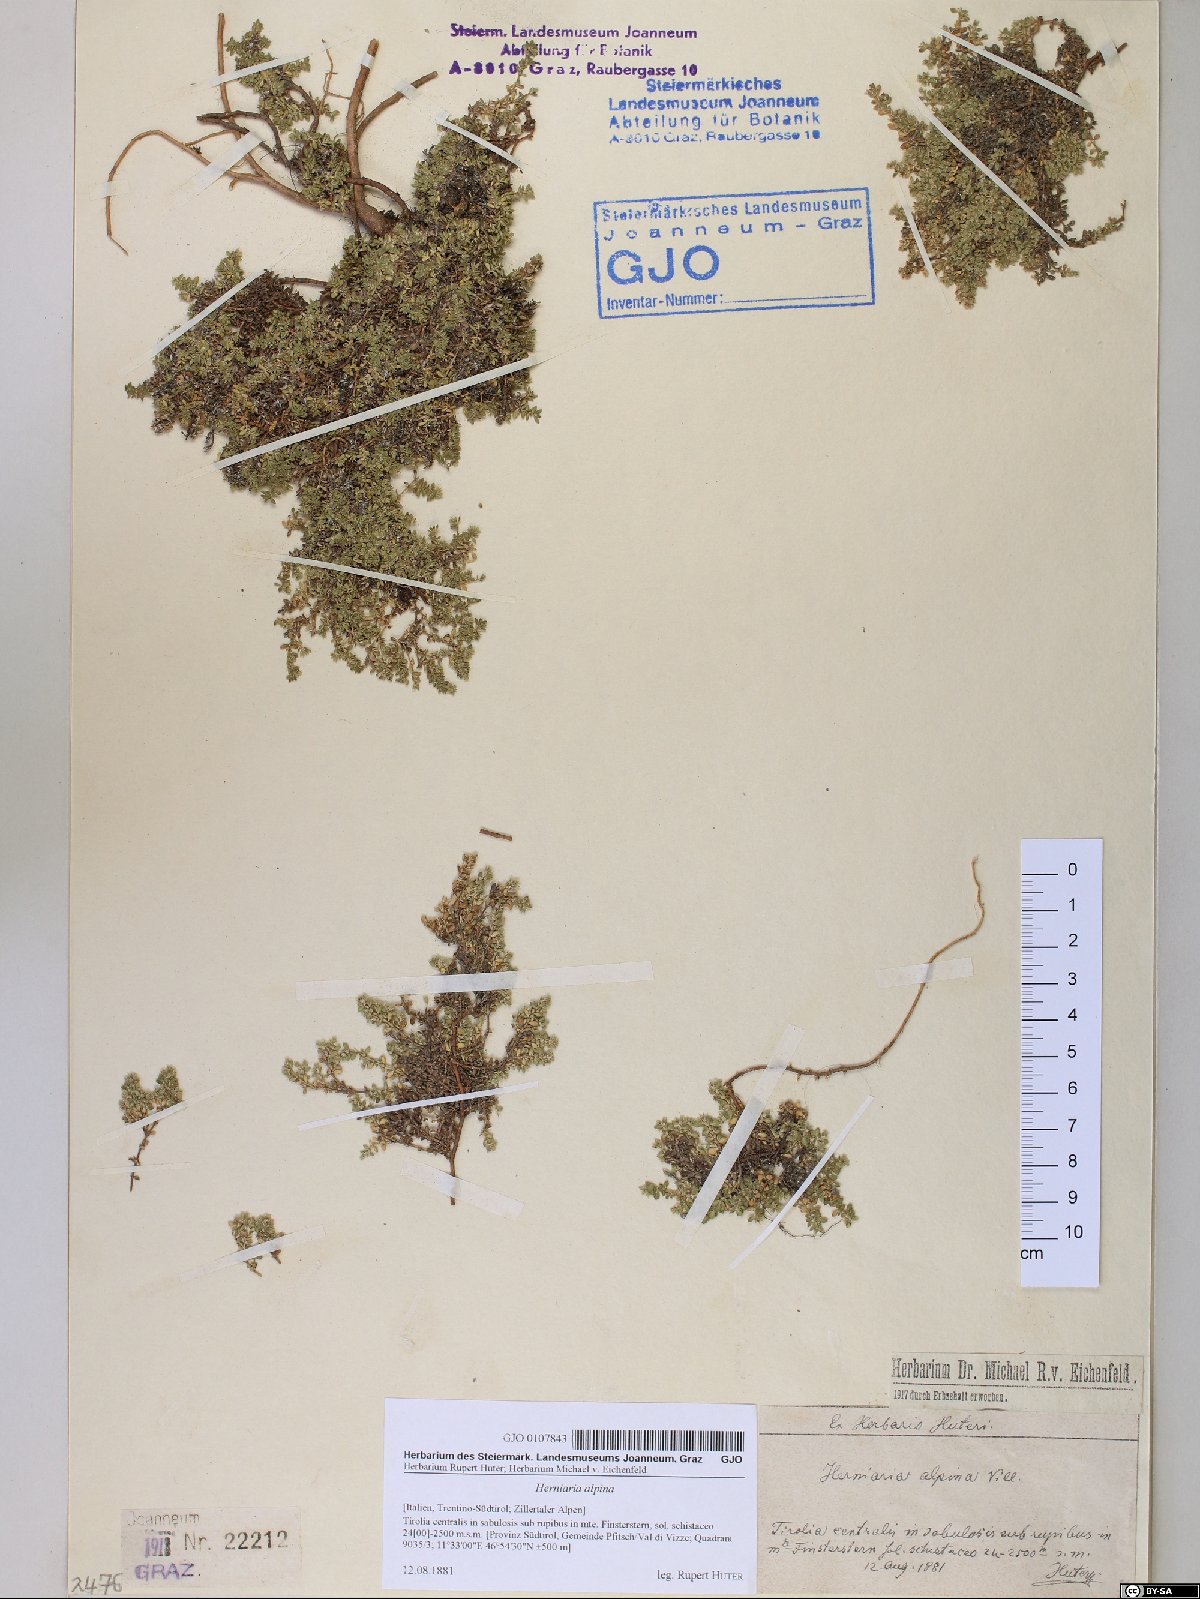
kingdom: Plantae
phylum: Tracheophyta
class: Magnoliopsida
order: Caryophyllales
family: Caryophyllaceae
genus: Herniaria
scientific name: Herniaria alpina
